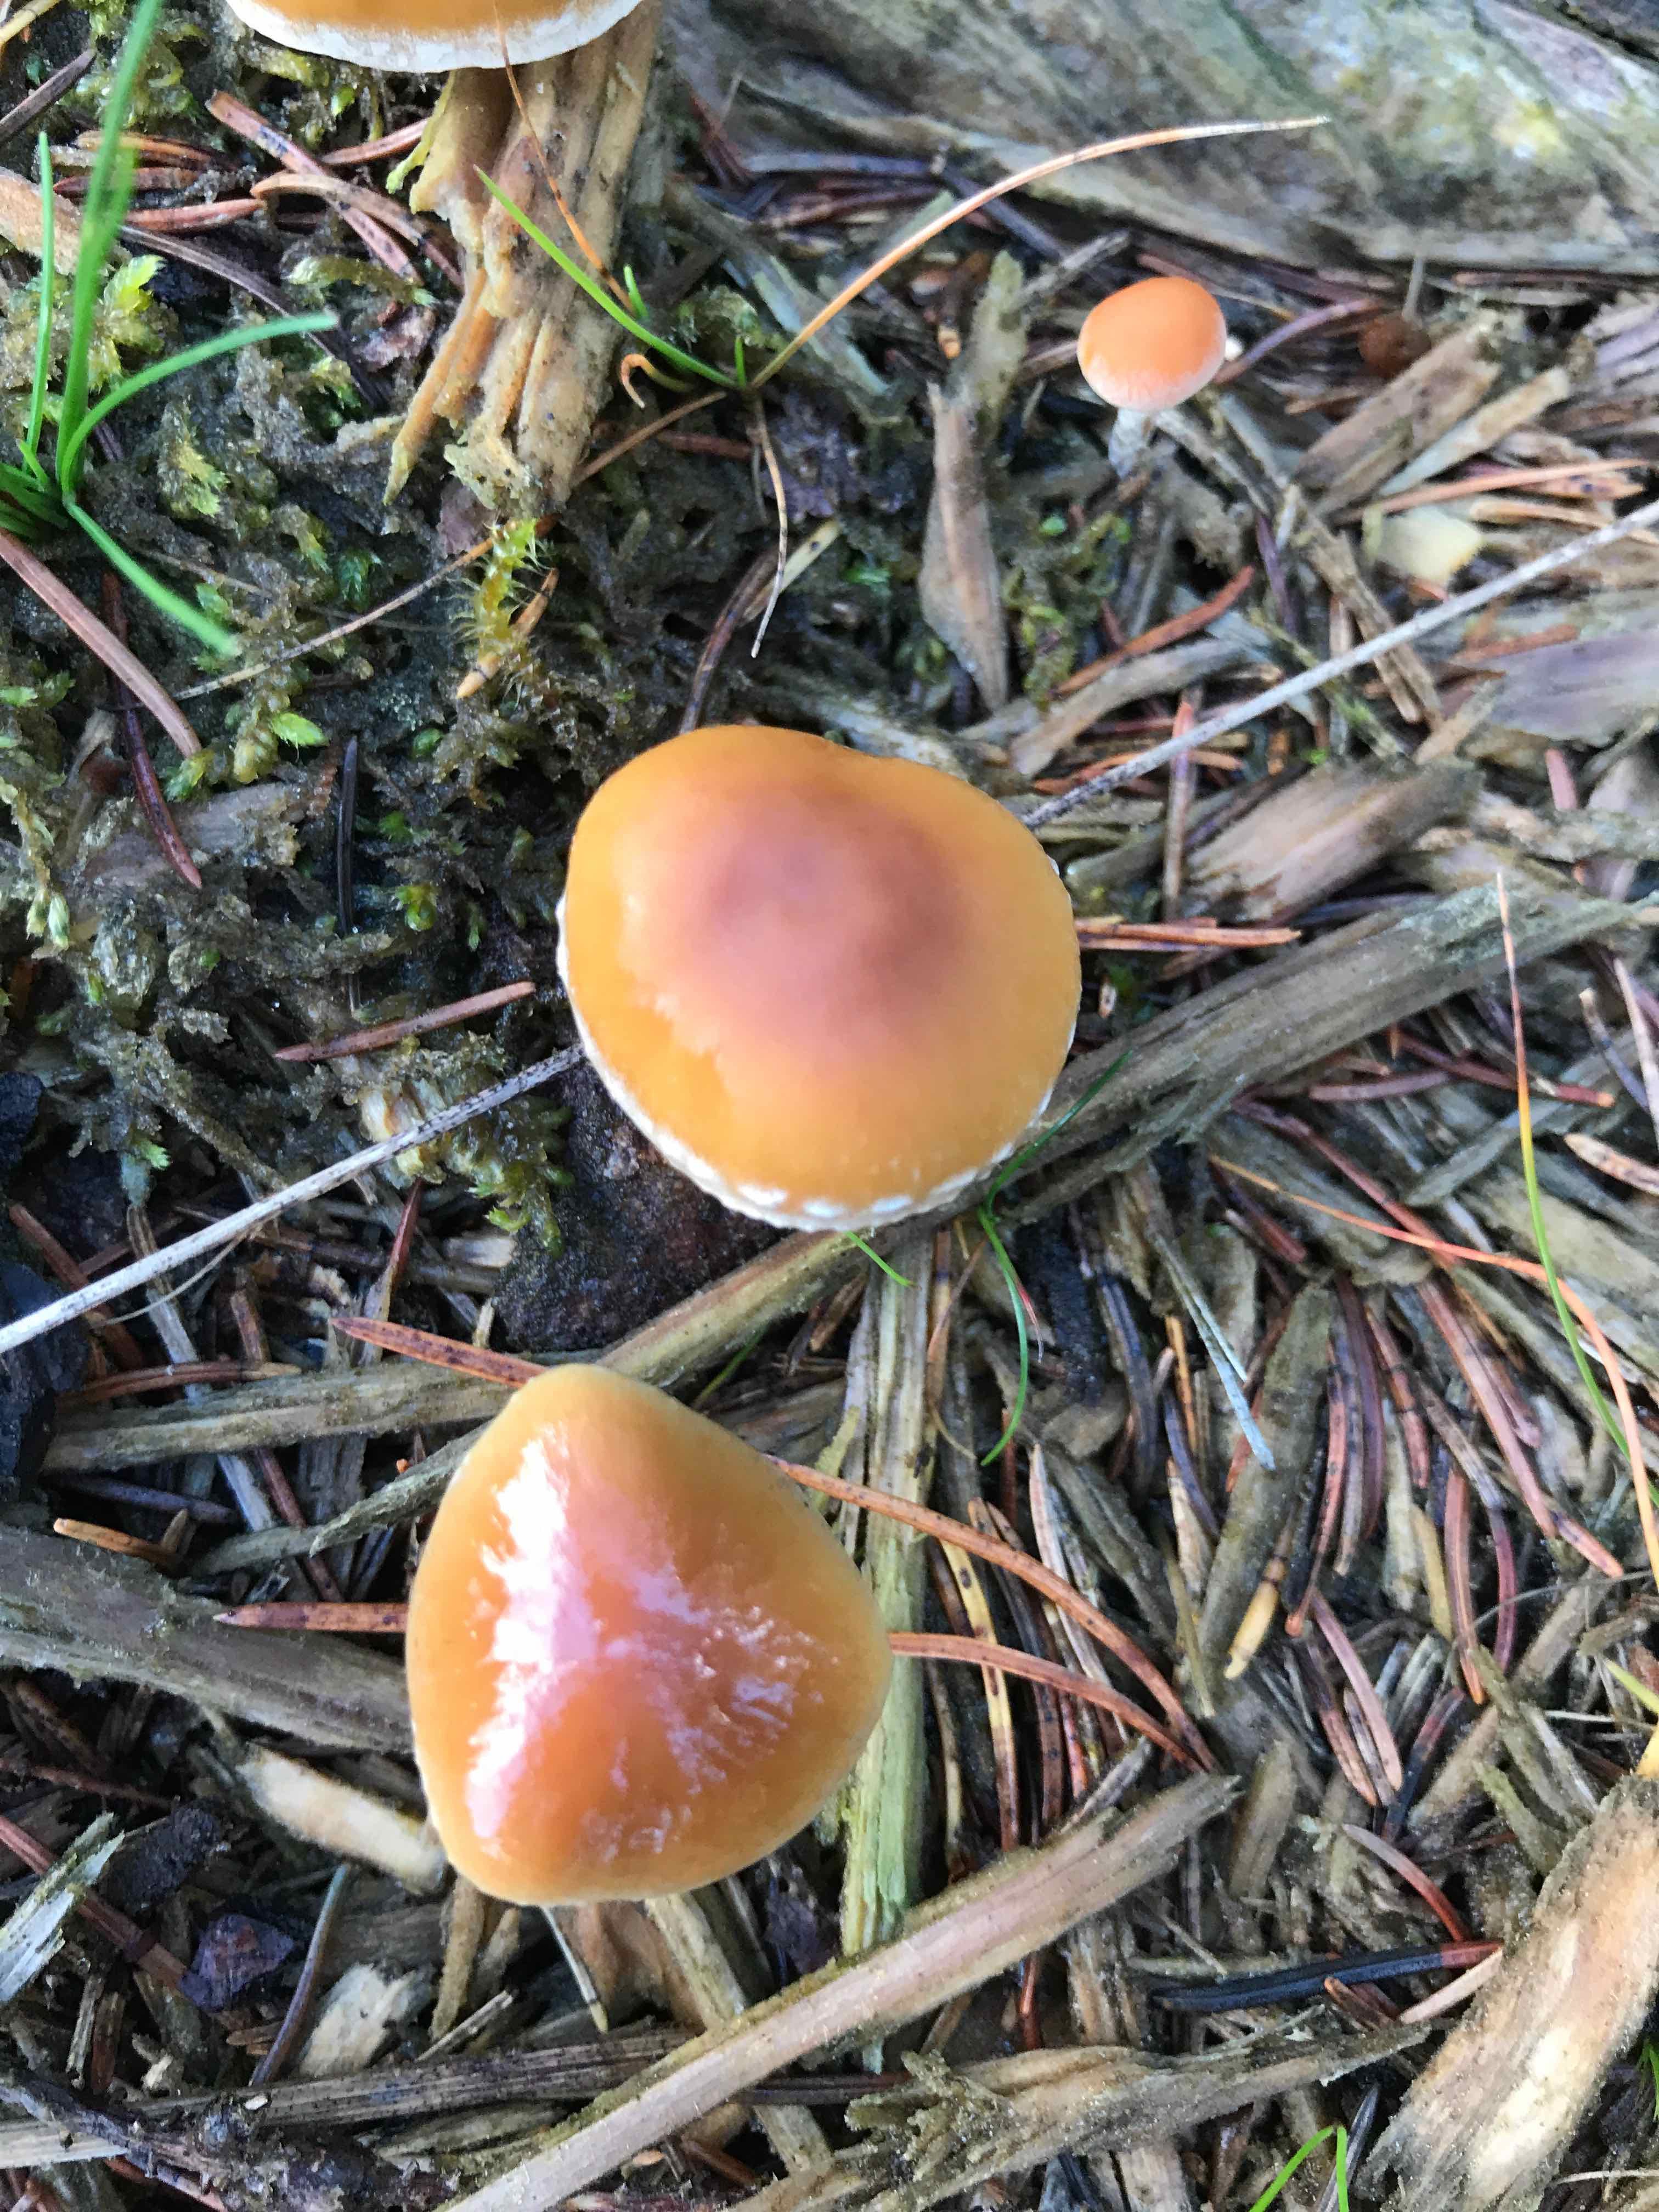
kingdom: Fungi
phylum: Basidiomycota
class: Agaricomycetes
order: Agaricales
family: Strophariaceae
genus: Hypholoma
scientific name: Hypholoma marginatum
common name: enlig svovlhat
